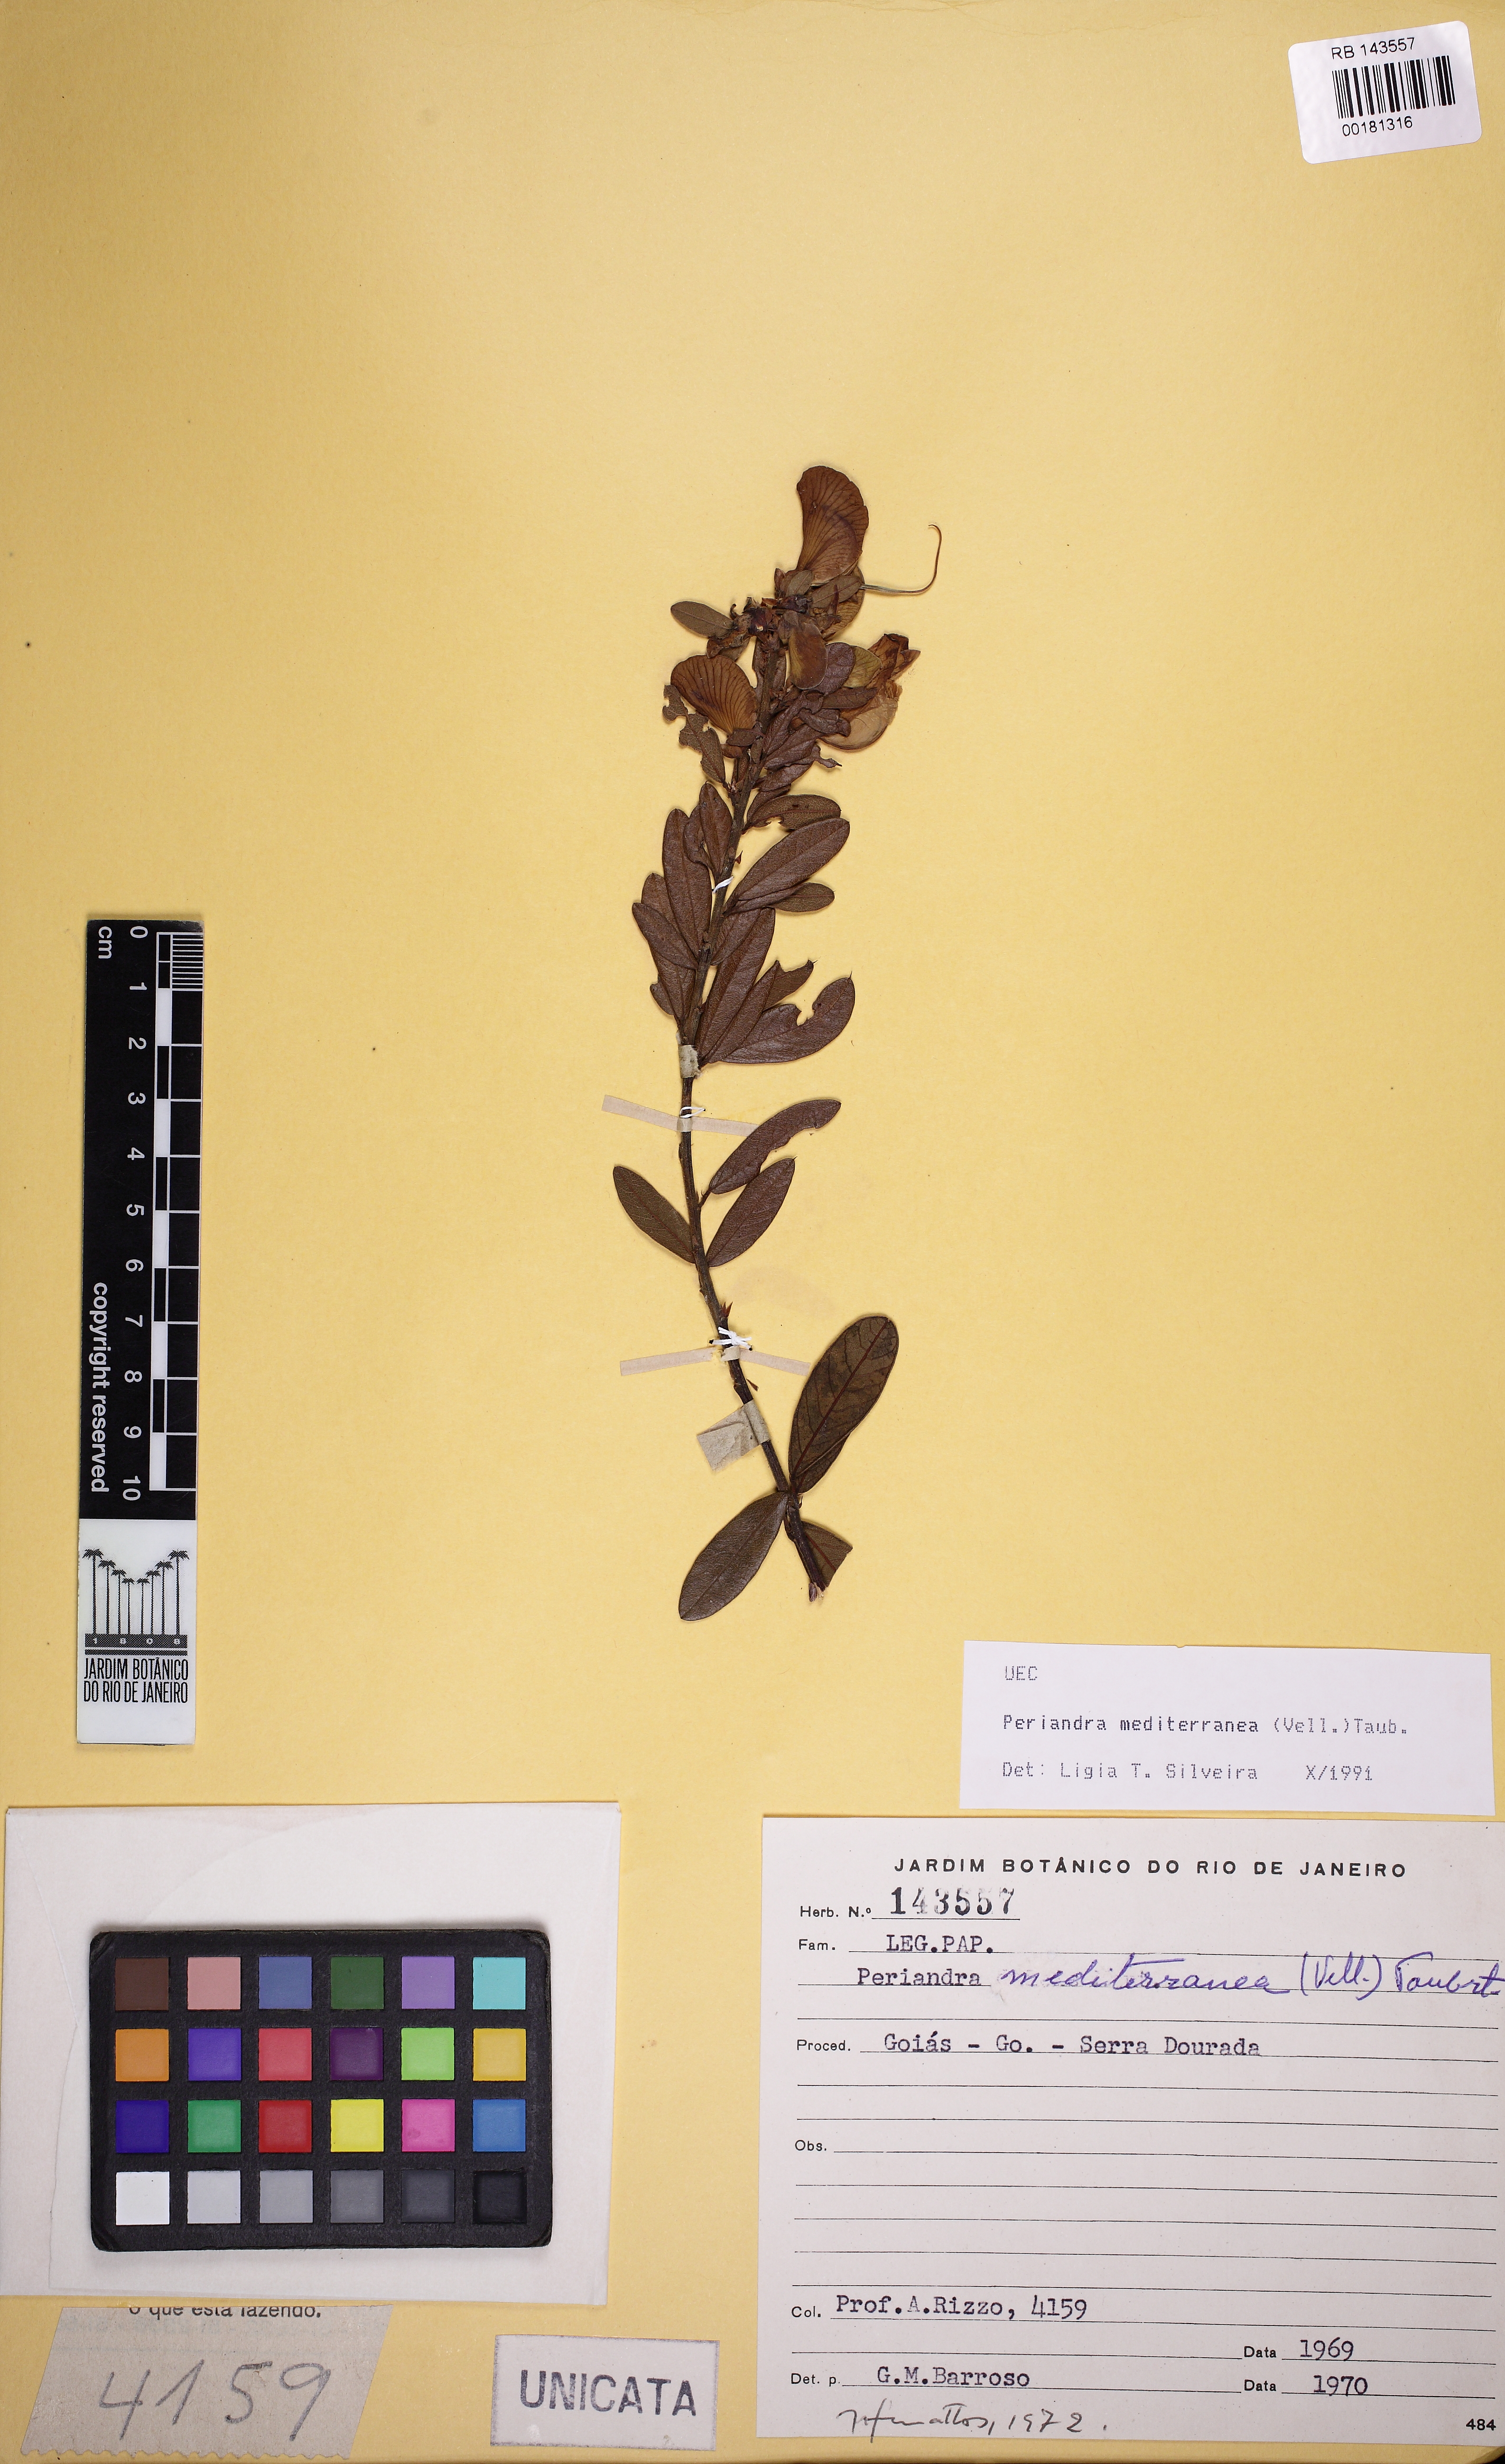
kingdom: Plantae
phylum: Tracheophyta
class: Magnoliopsida
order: Fabales
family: Fabaceae
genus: Periandra
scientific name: Periandra mediterranea
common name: Brazilian licorice
